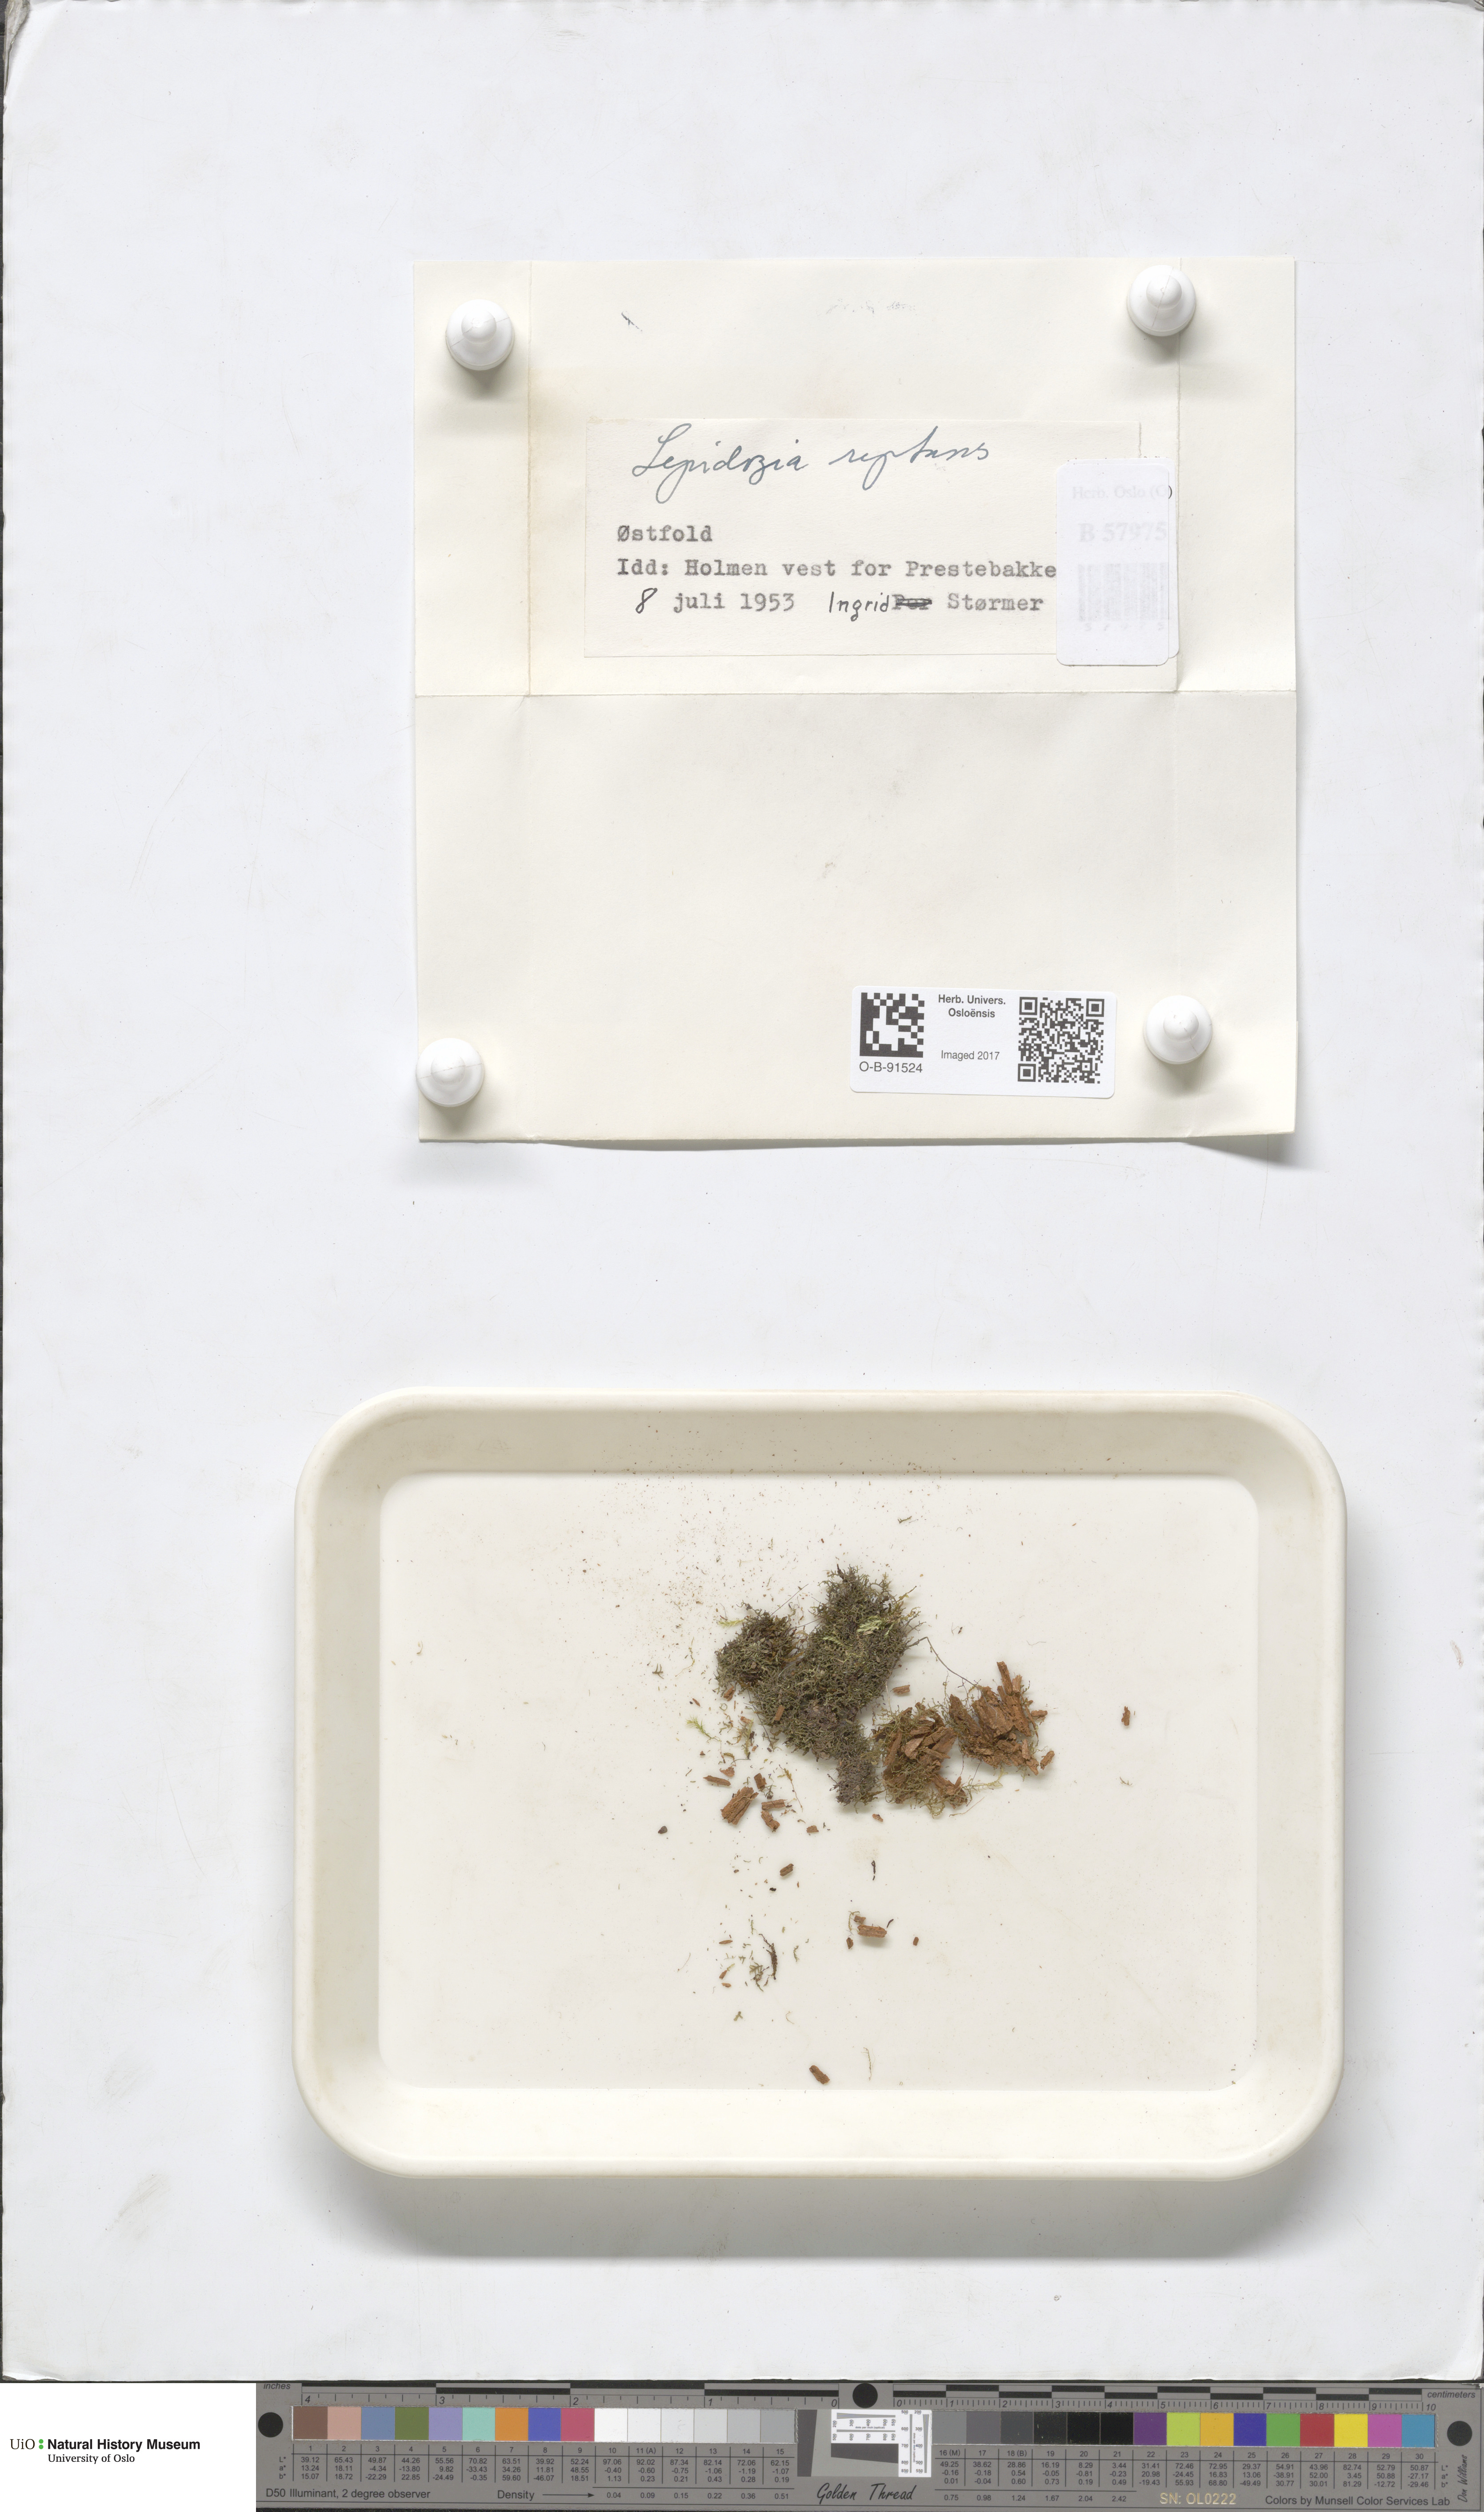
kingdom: Plantae
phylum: Marchantiophyta
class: Jungermanniopsida
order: Jungermanniales
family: Lepidoziaceae
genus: Lepidozia
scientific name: Lepidozia reptans
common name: Creeping fingerwort
